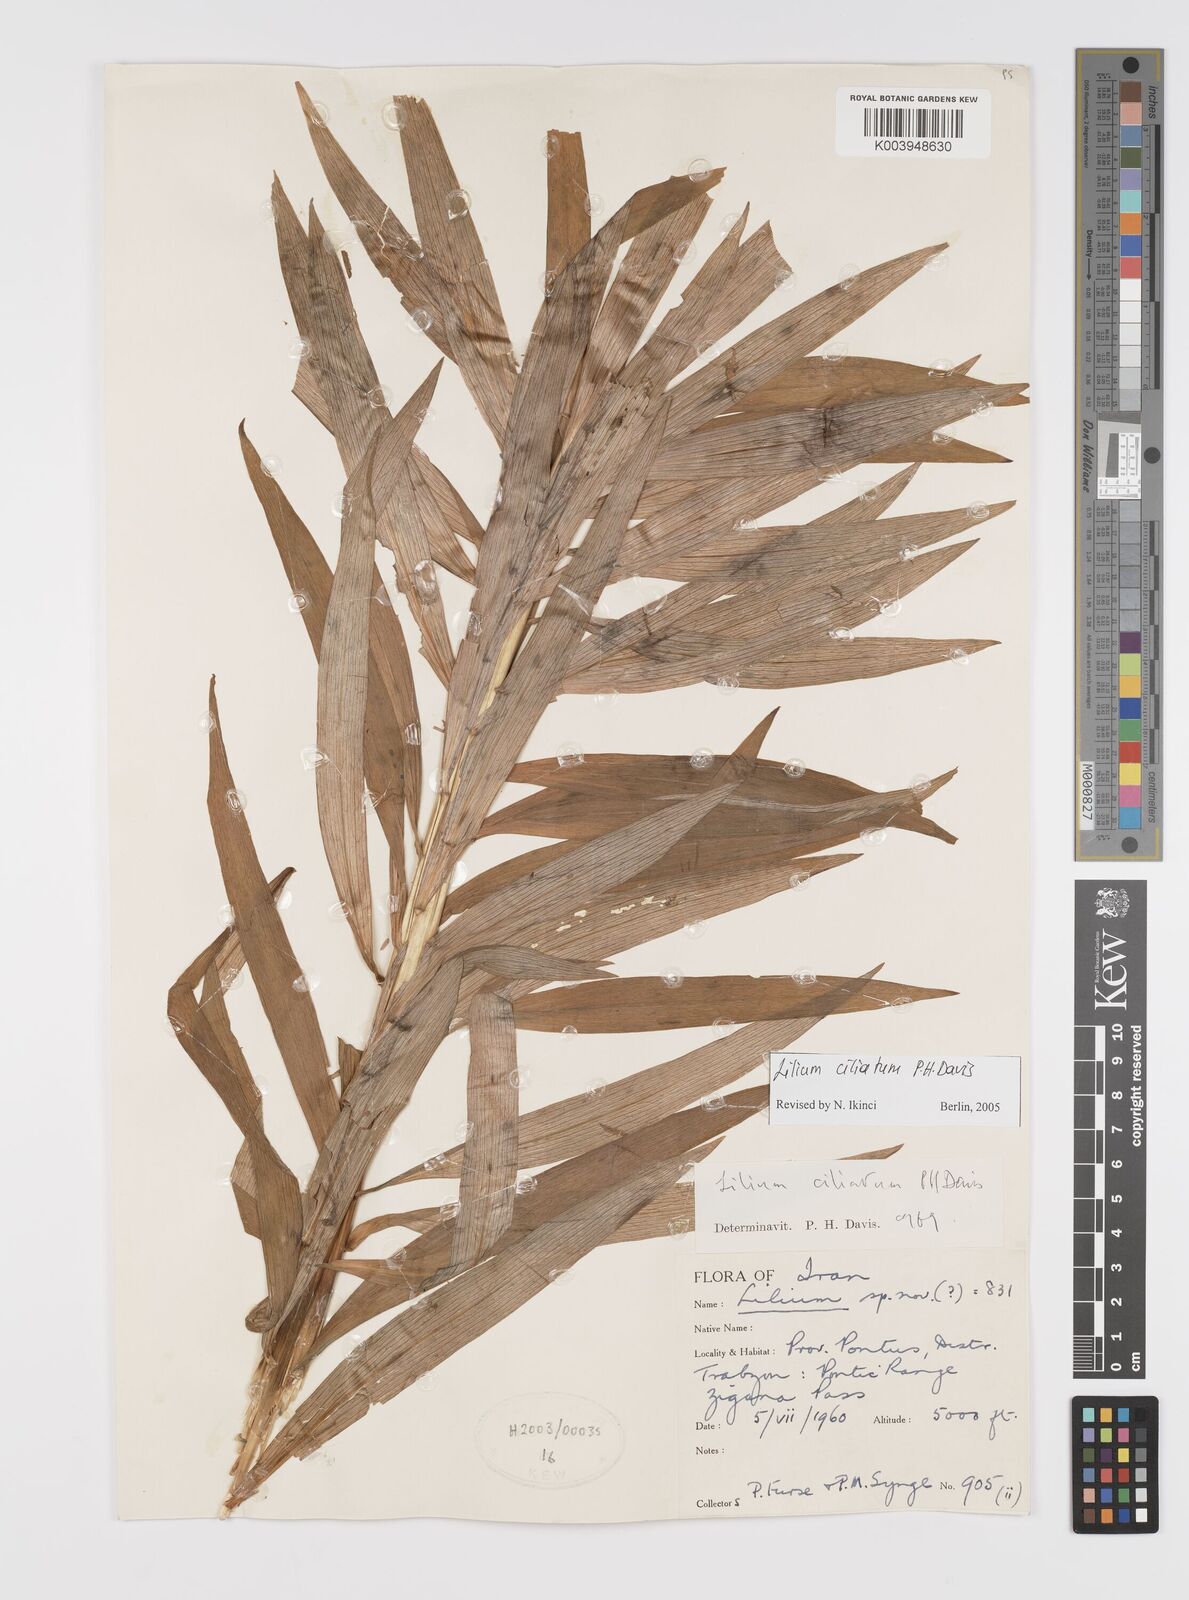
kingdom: Plantae
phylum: Tracheophyta
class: Liliopsida
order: Liliales
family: Liliaceae
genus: Lilium
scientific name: Lilium ciliatum
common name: Ciliate lily
